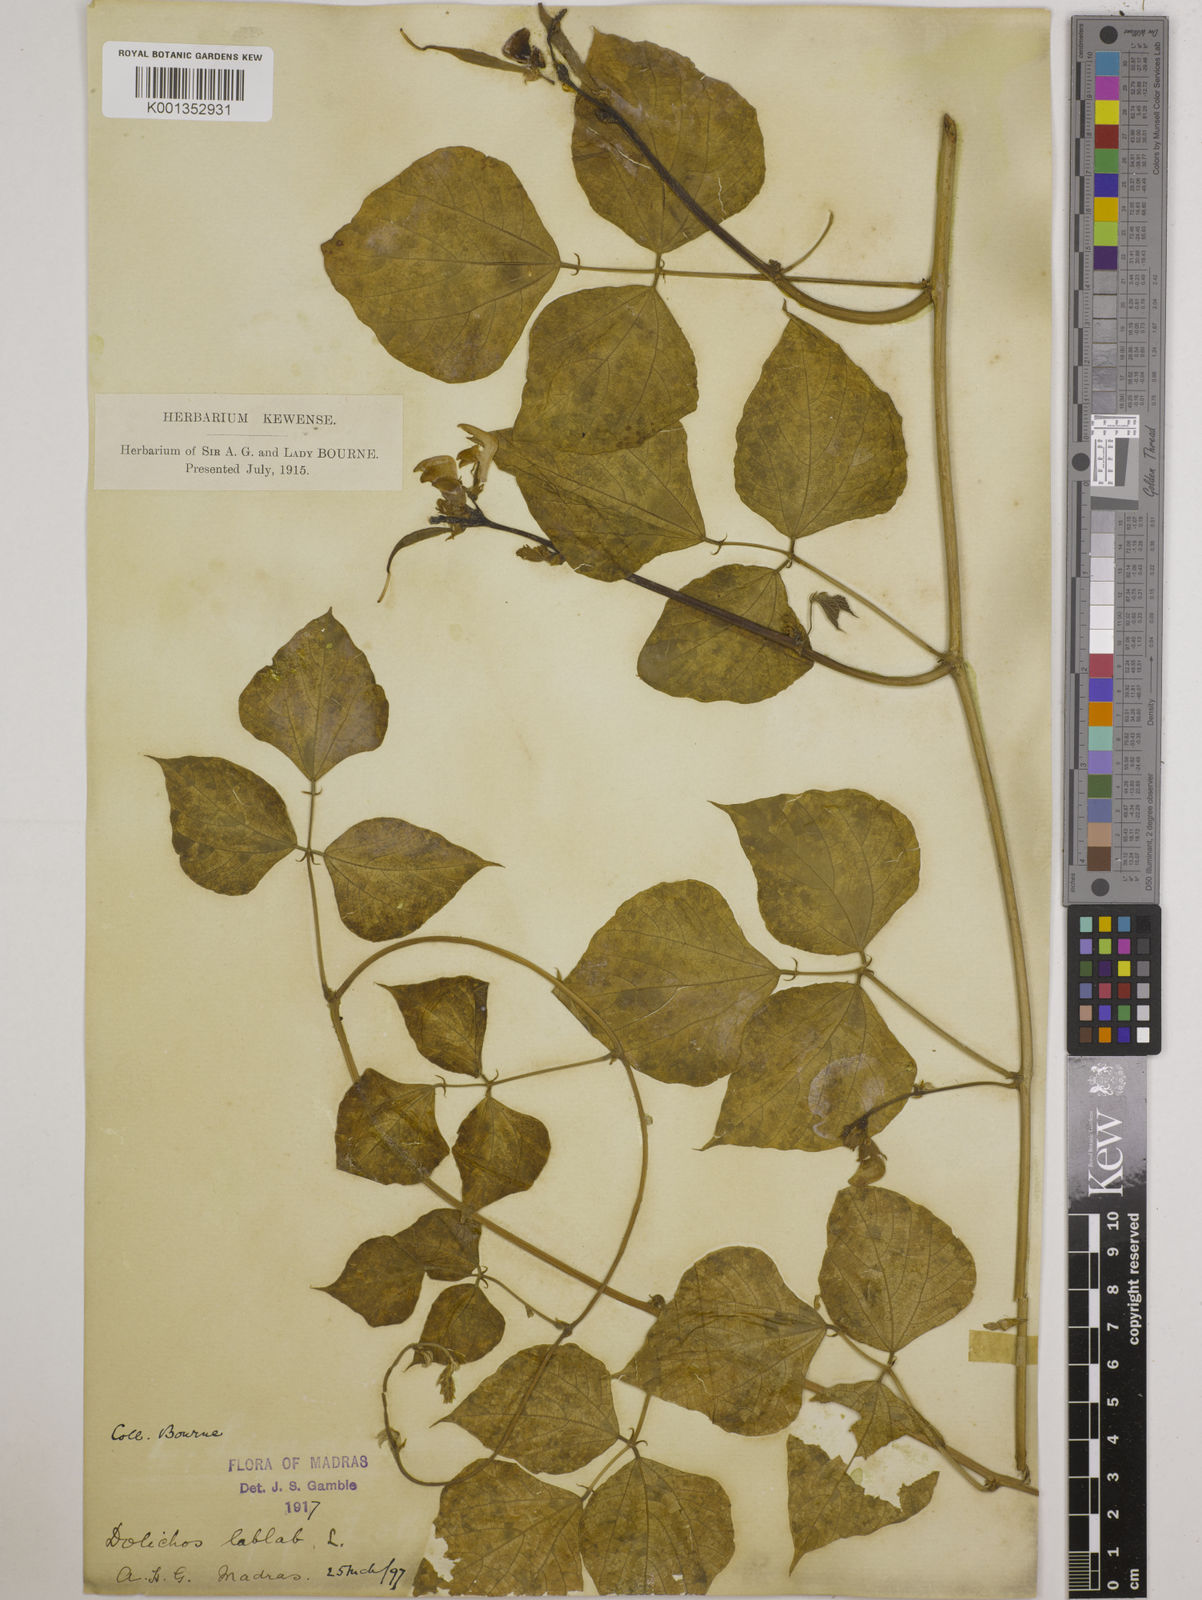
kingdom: Plantae
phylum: Tracheophyta
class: Magnoliopsida
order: Fabales
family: Fabaceae
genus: Lablab
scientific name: Lablab purpureus
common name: Lablab-bean
